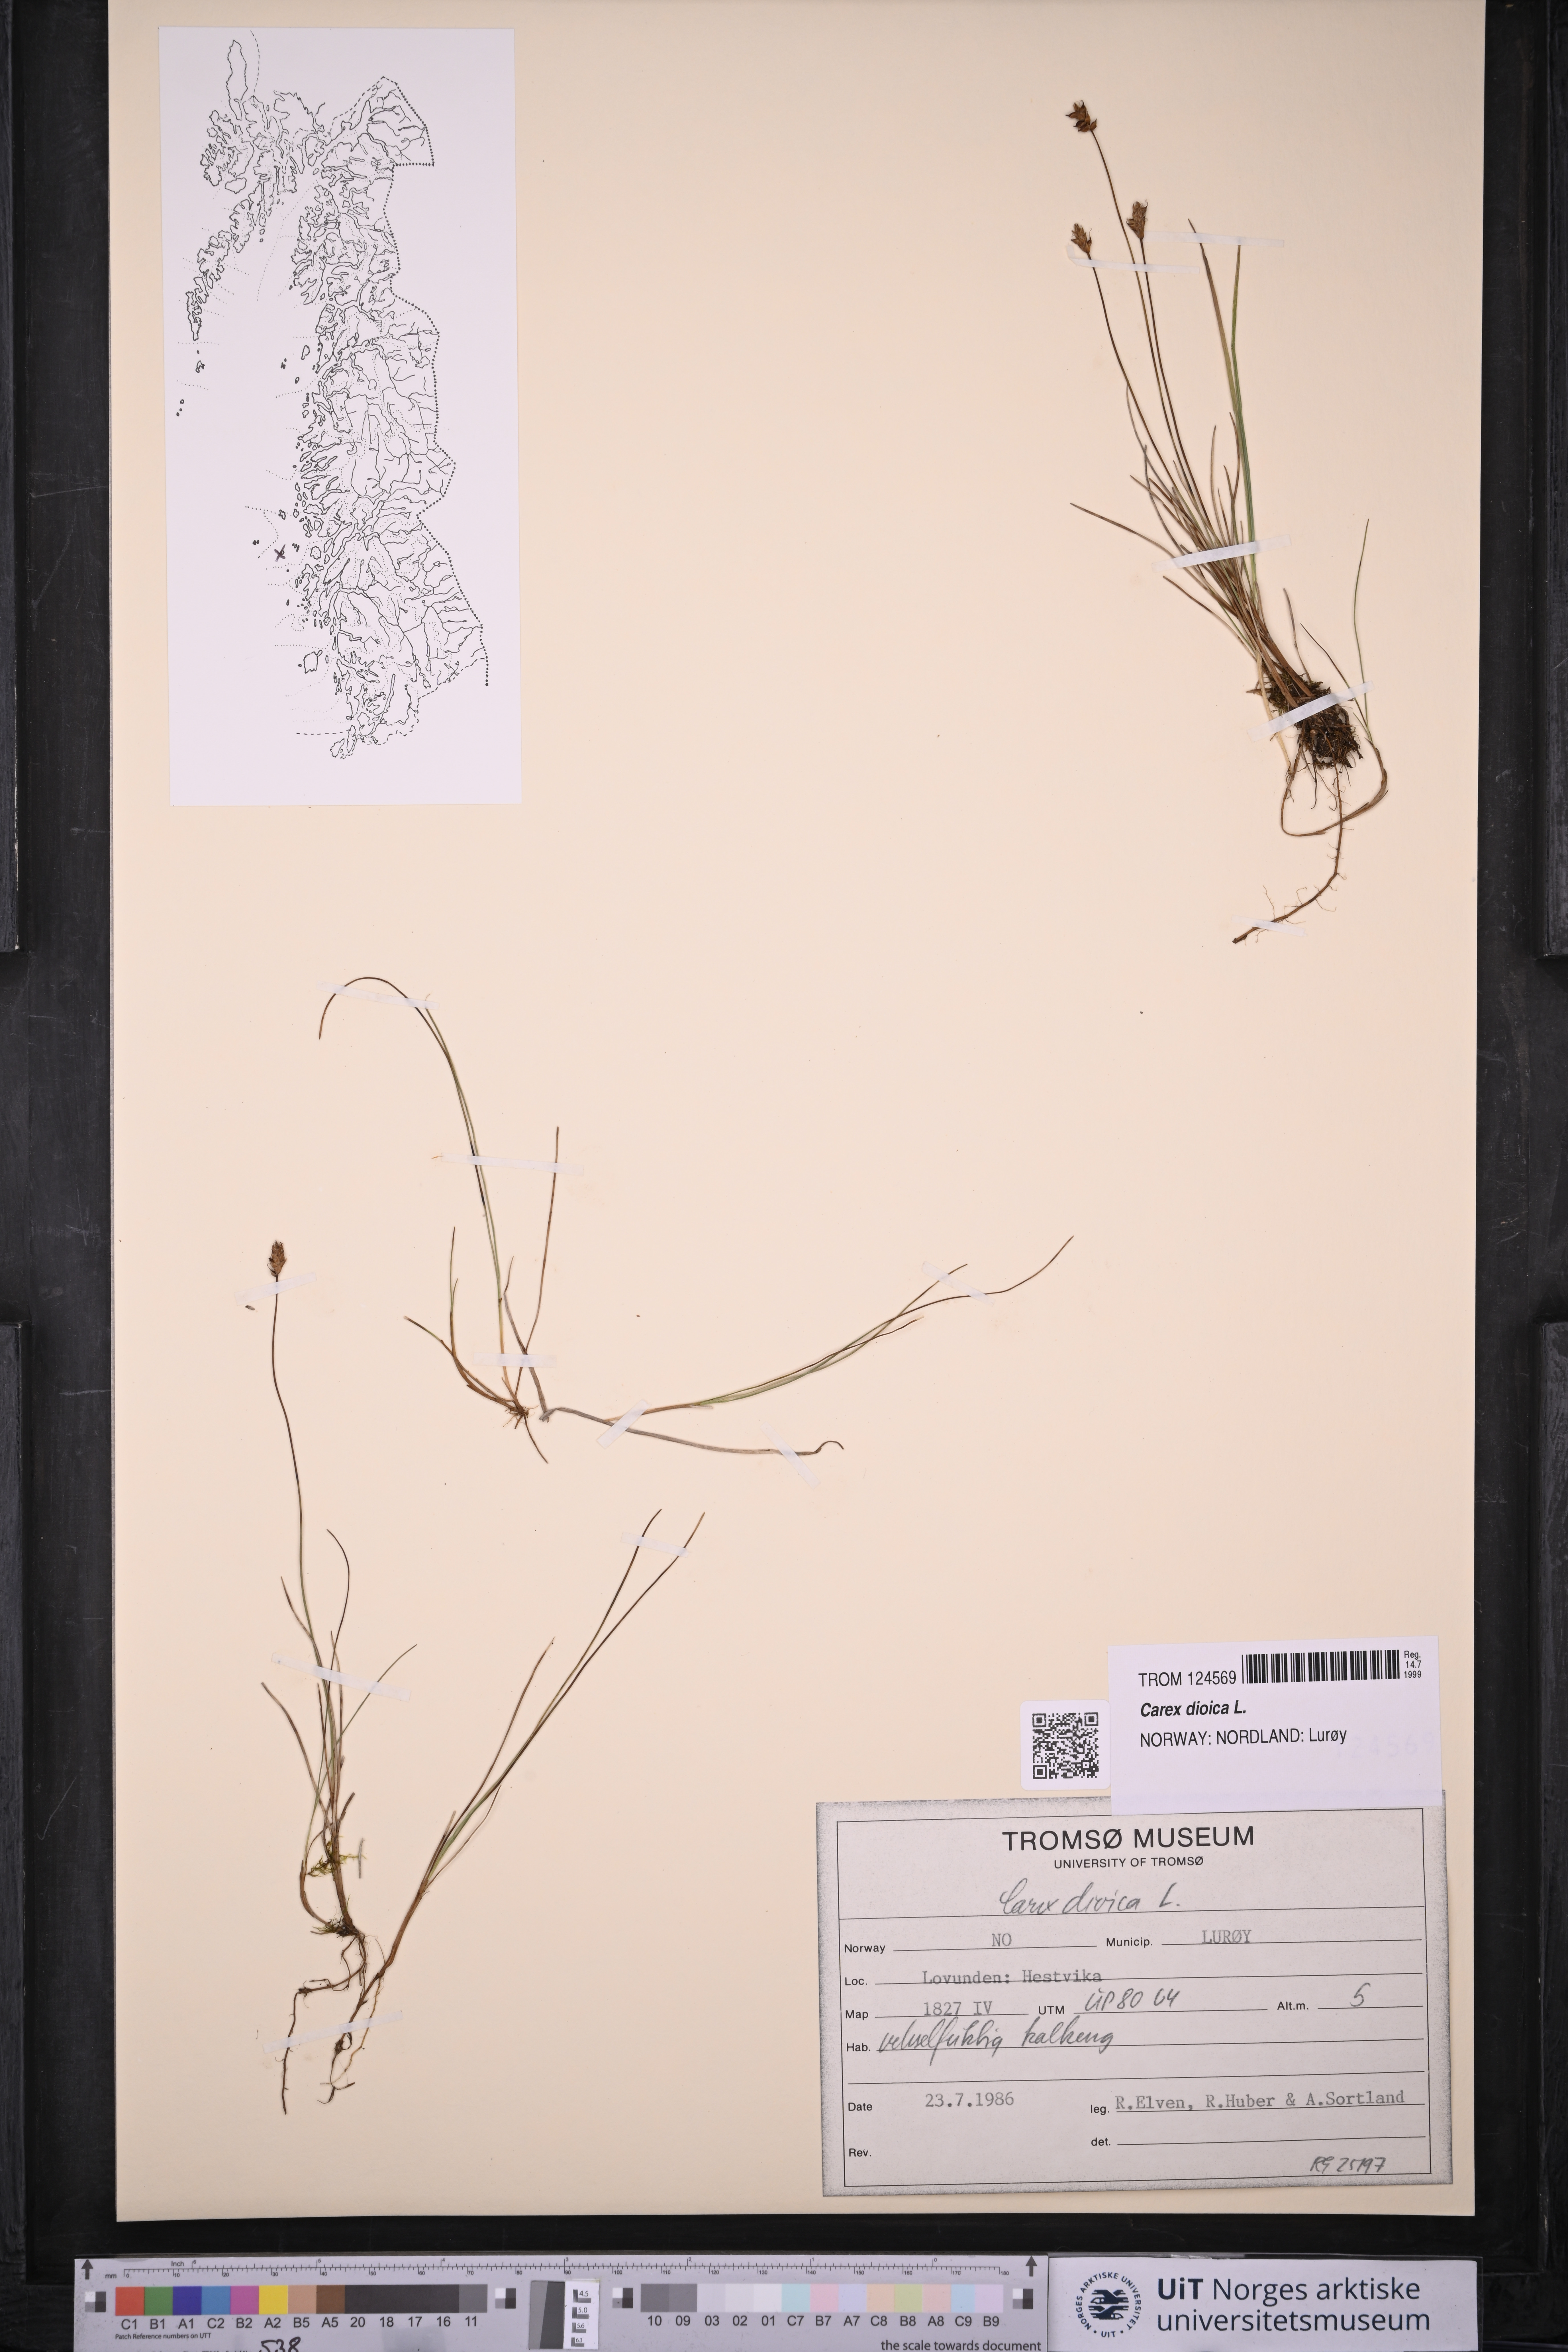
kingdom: Plantae
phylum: Tracheophyta
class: Liliopsida
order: Poales
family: Cyperaceae
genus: Carex
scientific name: Carex dioica
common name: Dioecious sedge
